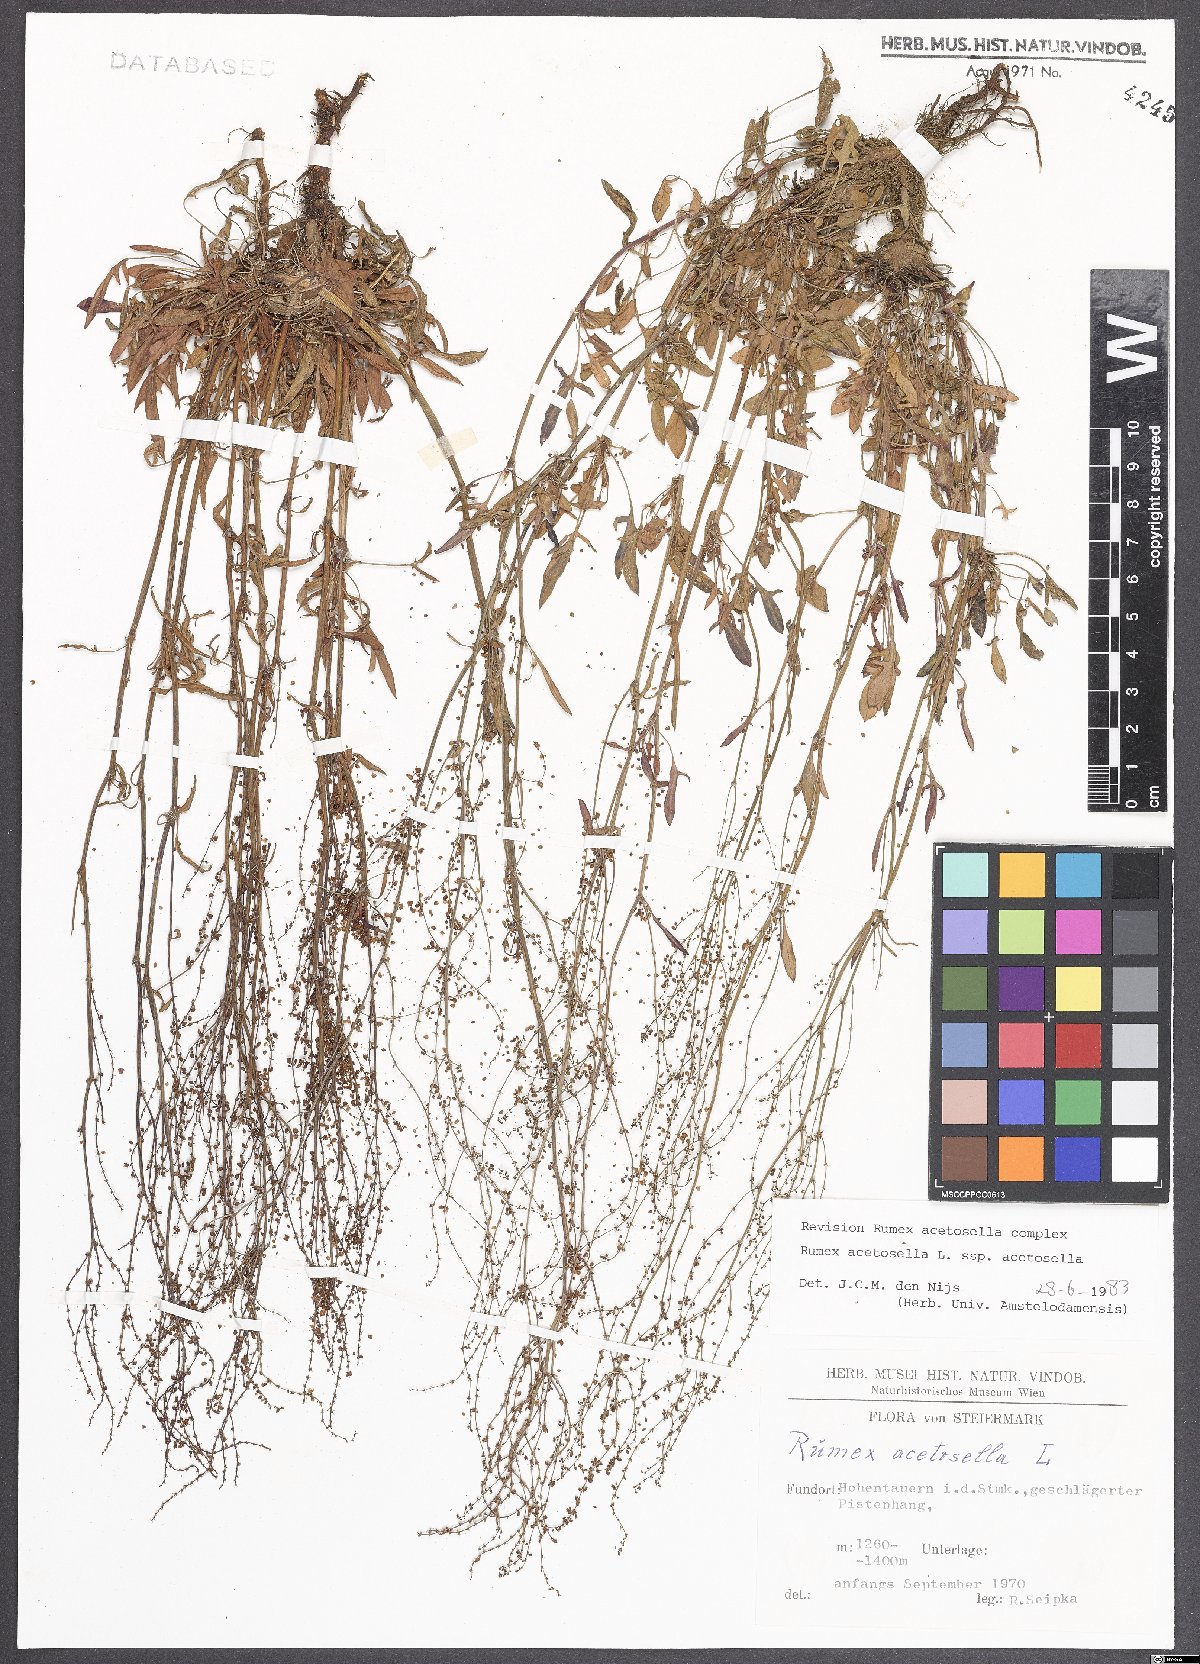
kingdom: Plantae
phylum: Tracheophyta
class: Magnoliopsida
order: Caryophyllales
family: Polygonaceae
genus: Rumex
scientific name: Rumex acetosella
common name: Common sheep sorrel
